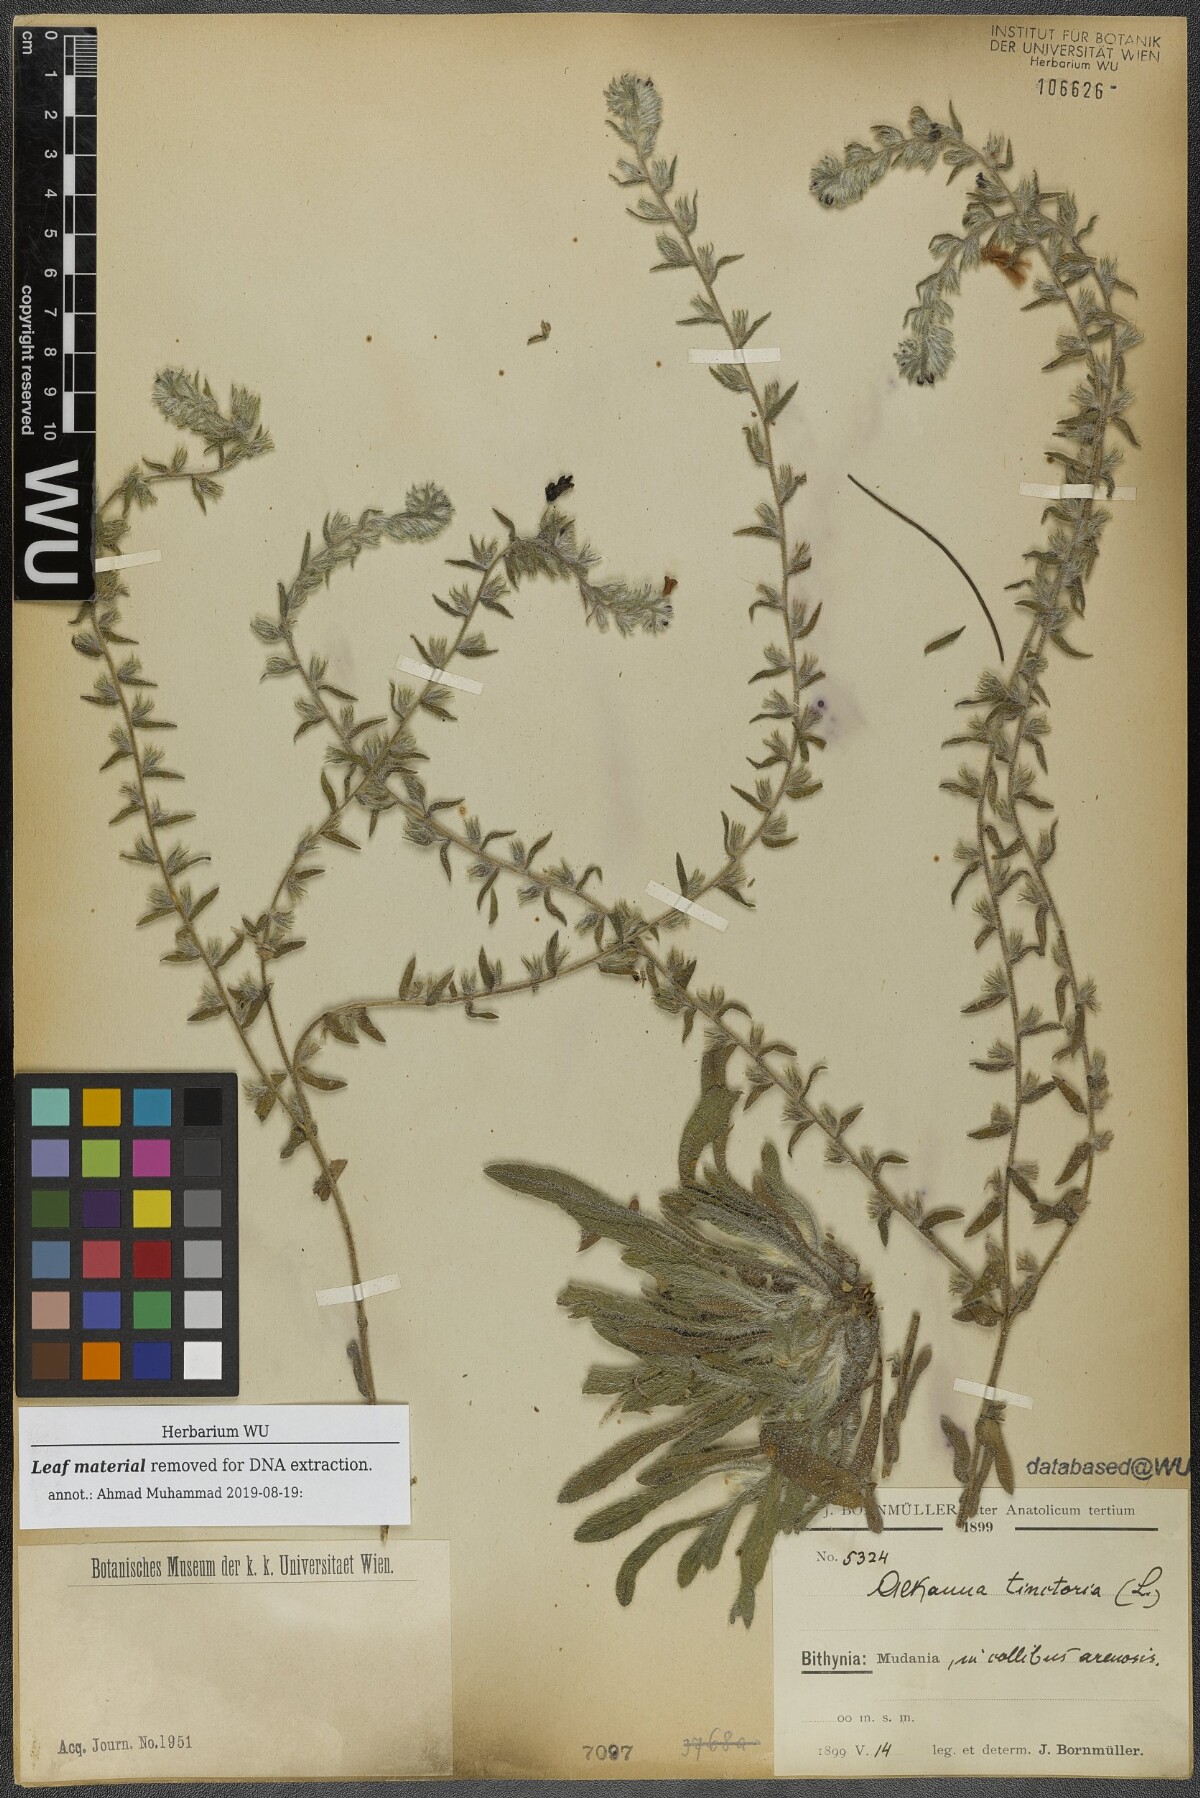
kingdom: Plantae
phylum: Tracheophyta
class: Magnoliopsida
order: Boraginales
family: Boraginaceae
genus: Alkanna
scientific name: Alkanna tinctoria
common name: Dyer's-alkanet
